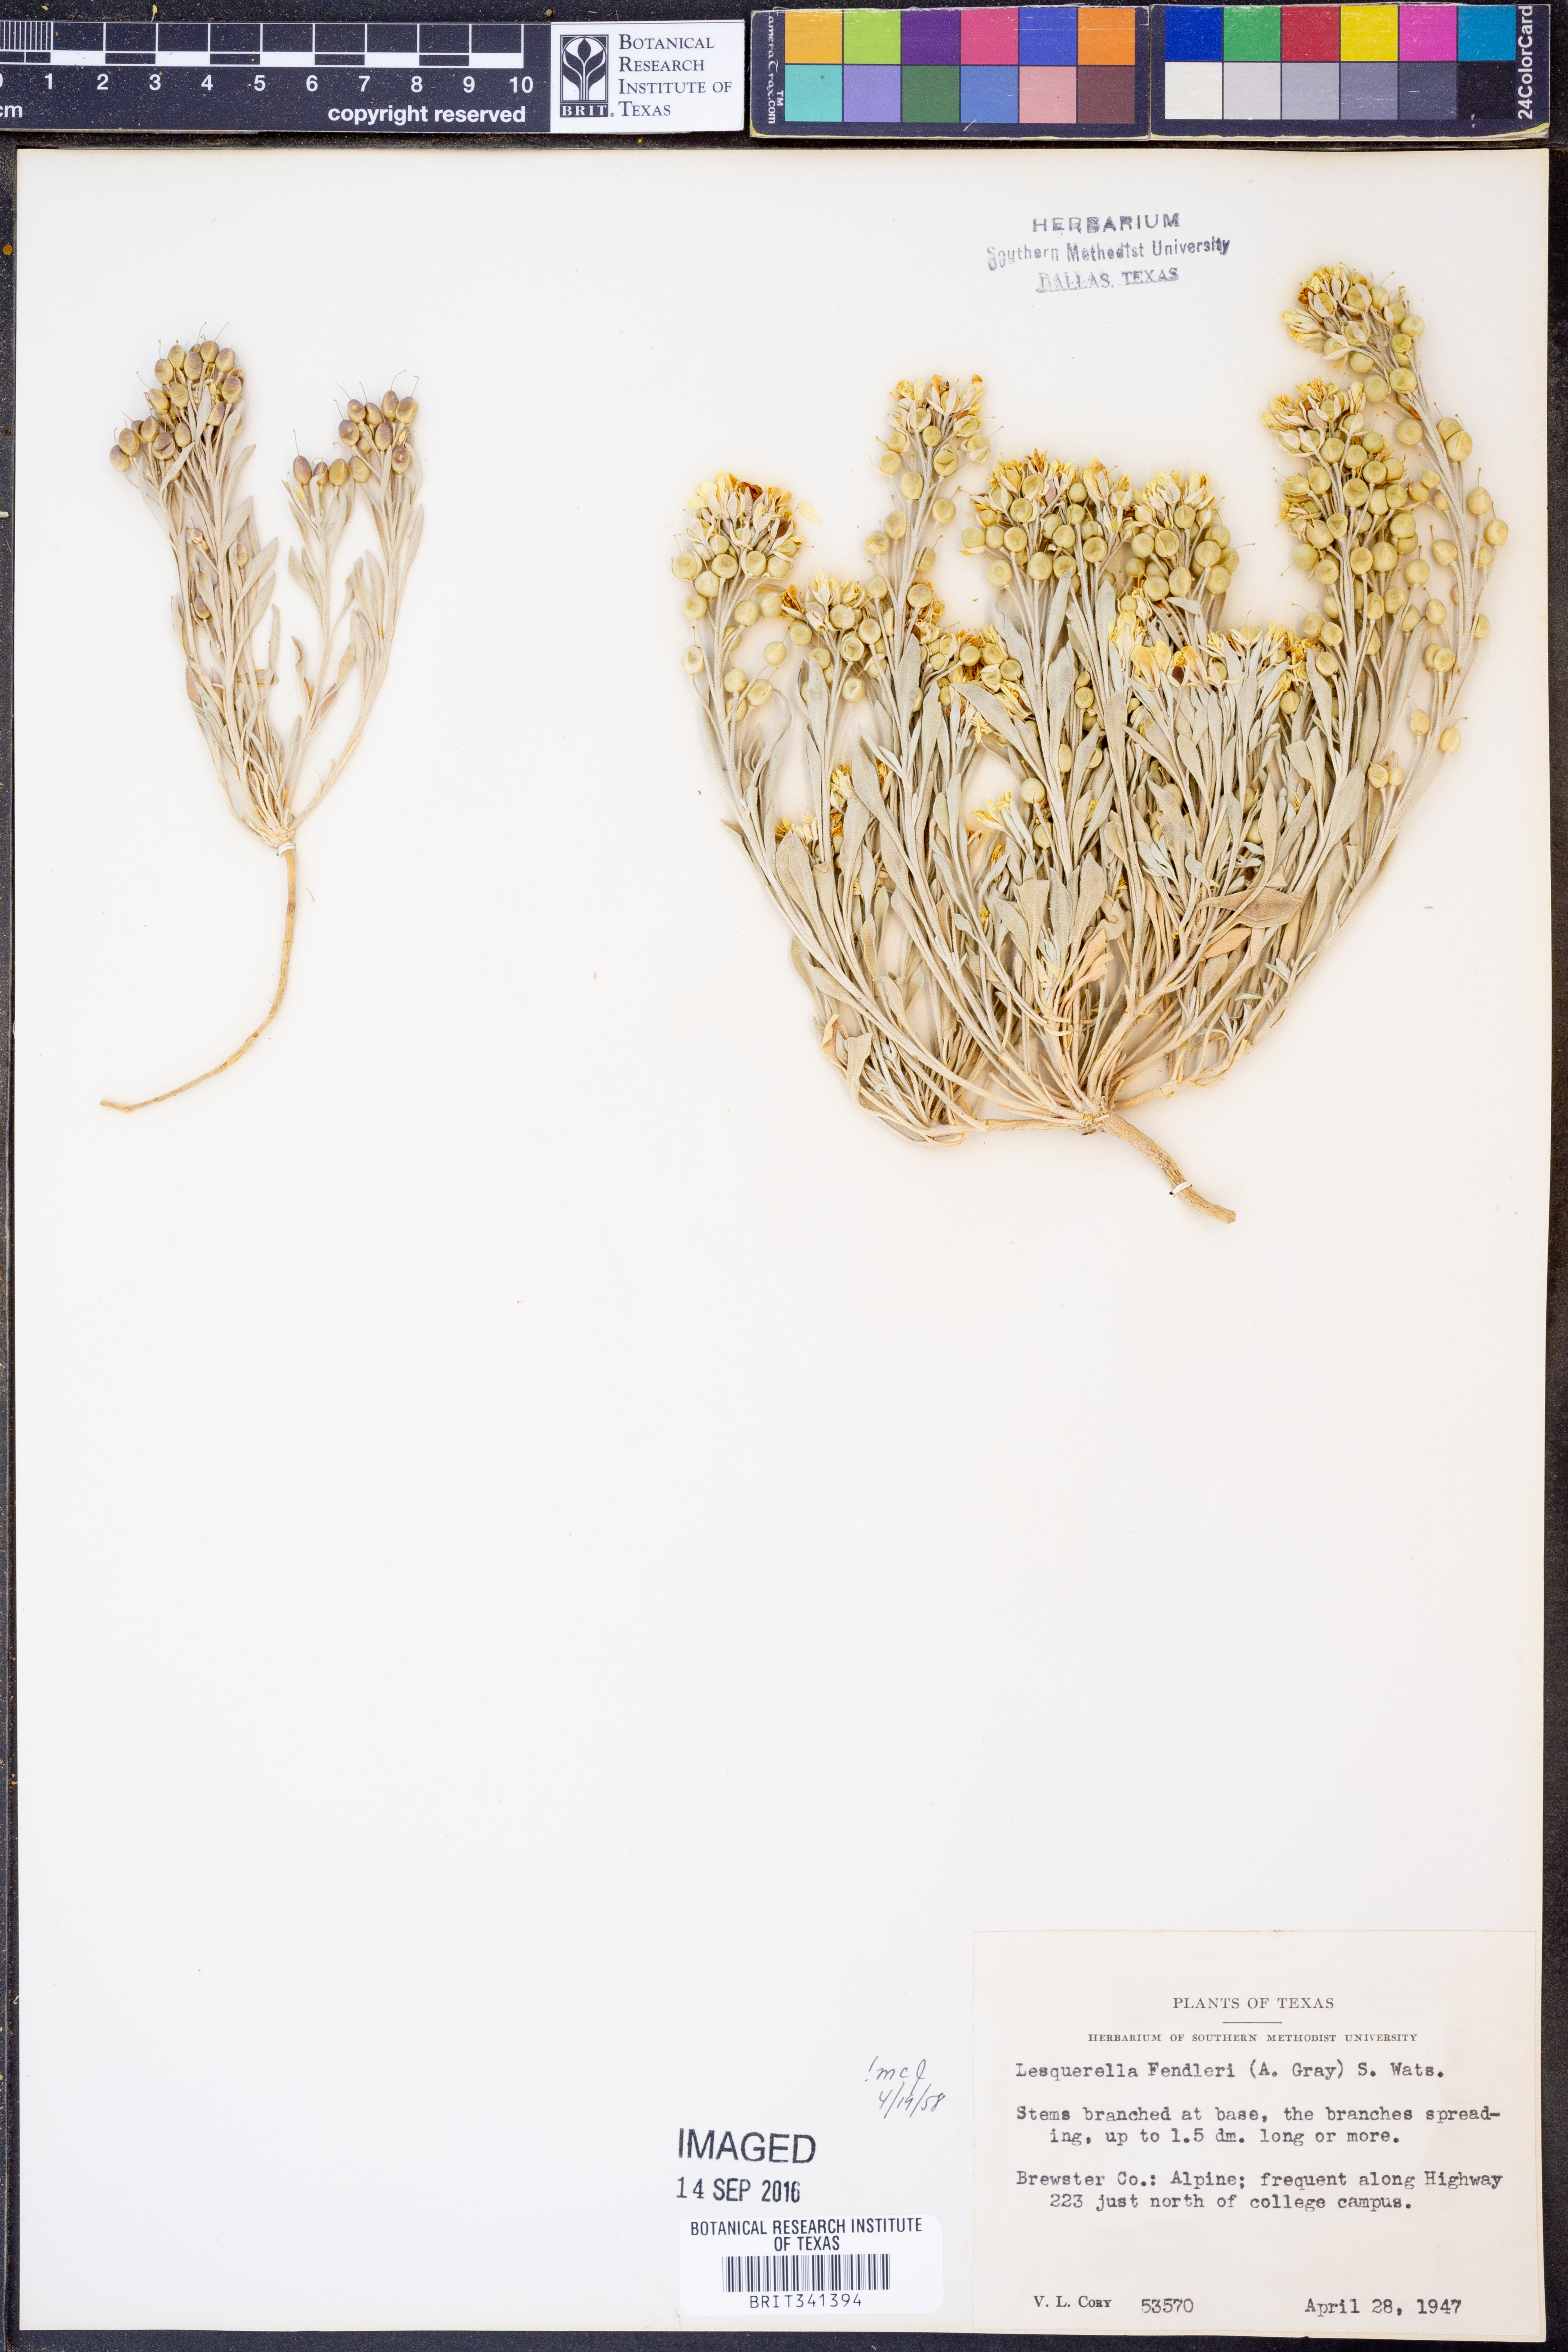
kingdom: Plantae
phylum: Tracheophyta
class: Magnoliopsida
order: Brassicales
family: Brassicaceae
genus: Physaria
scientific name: Physaria fendleri
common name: Fendler's bladderpod
